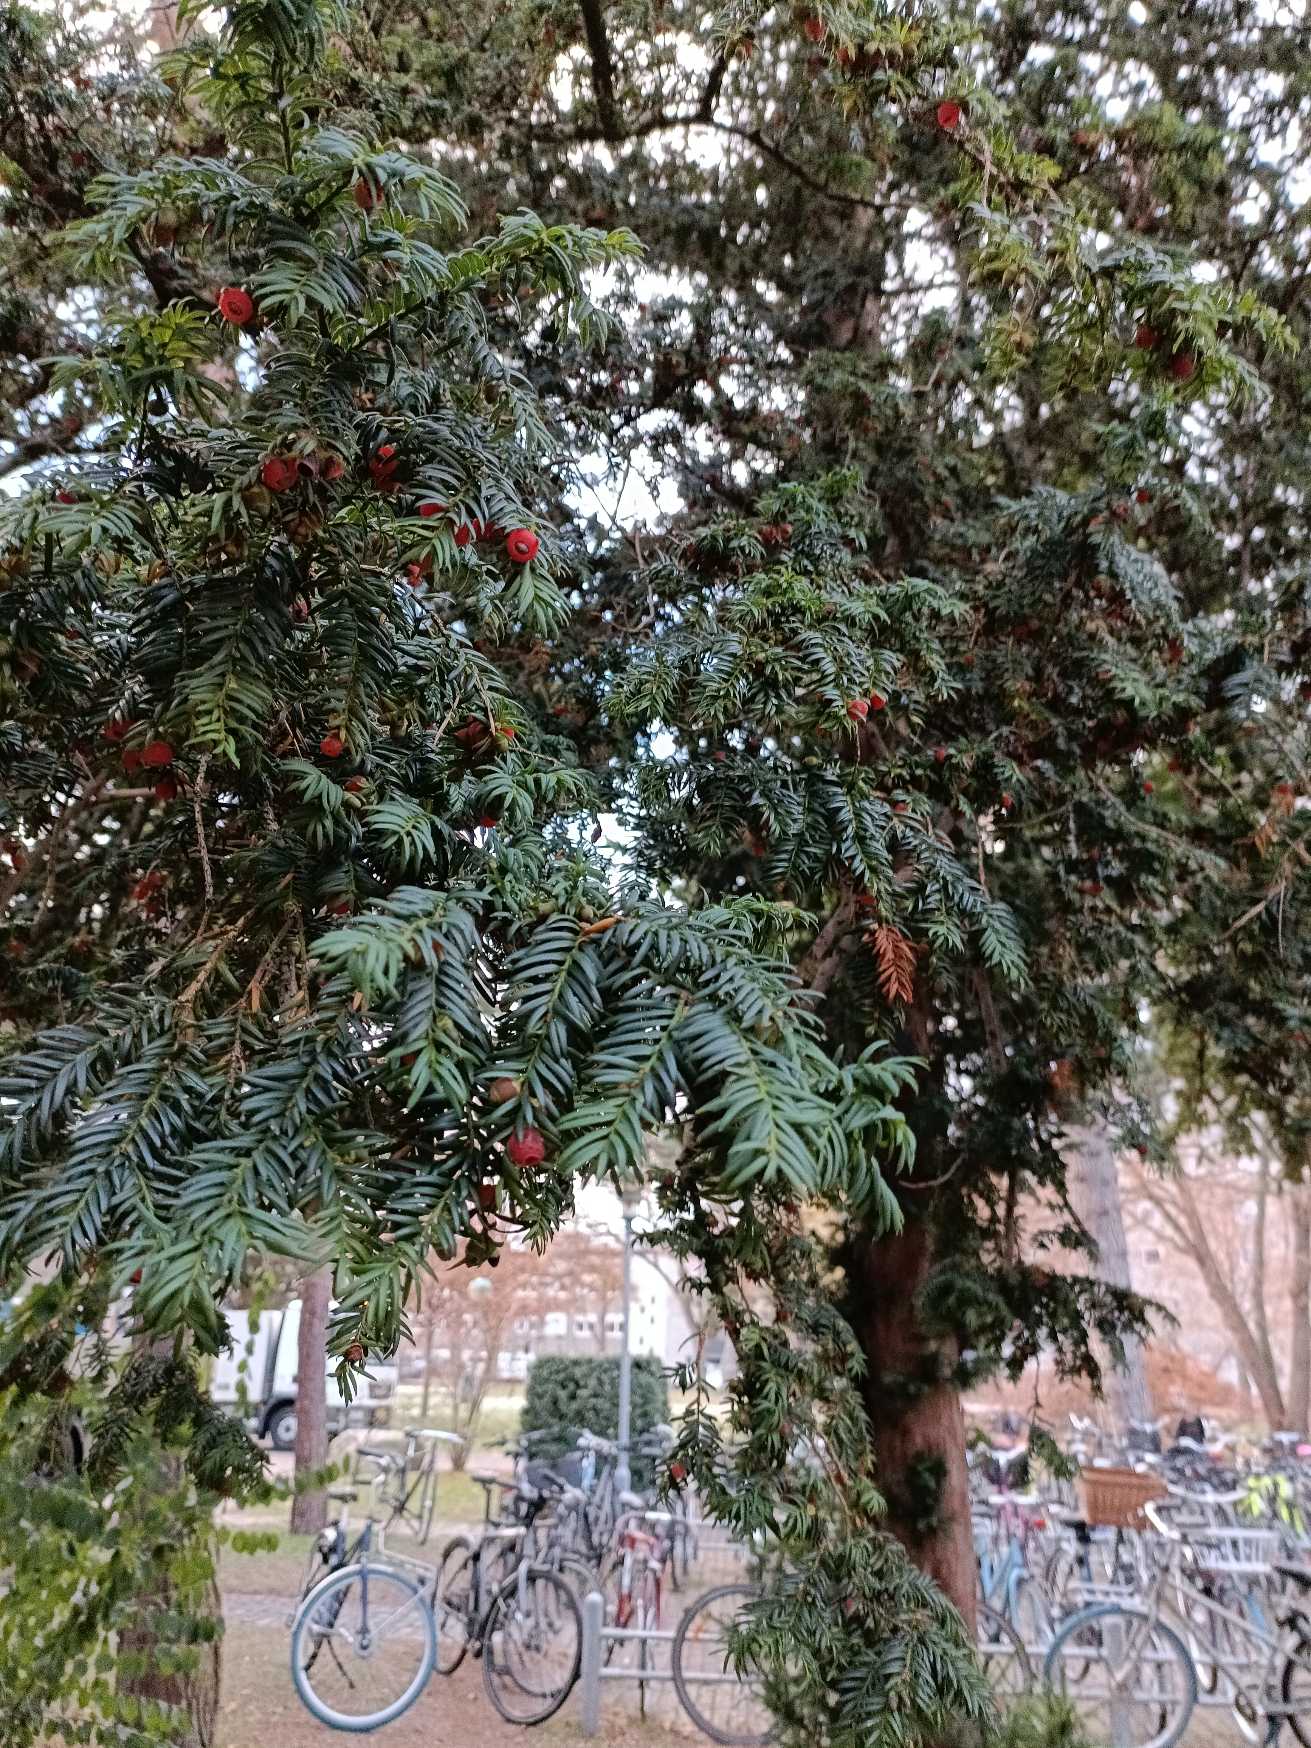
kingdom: Plantae
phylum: Tracheophyta
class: Pinopsida
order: Pinales
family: Taxaceae
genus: Taxus
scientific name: Taxus baccata
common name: Almindelig taks
